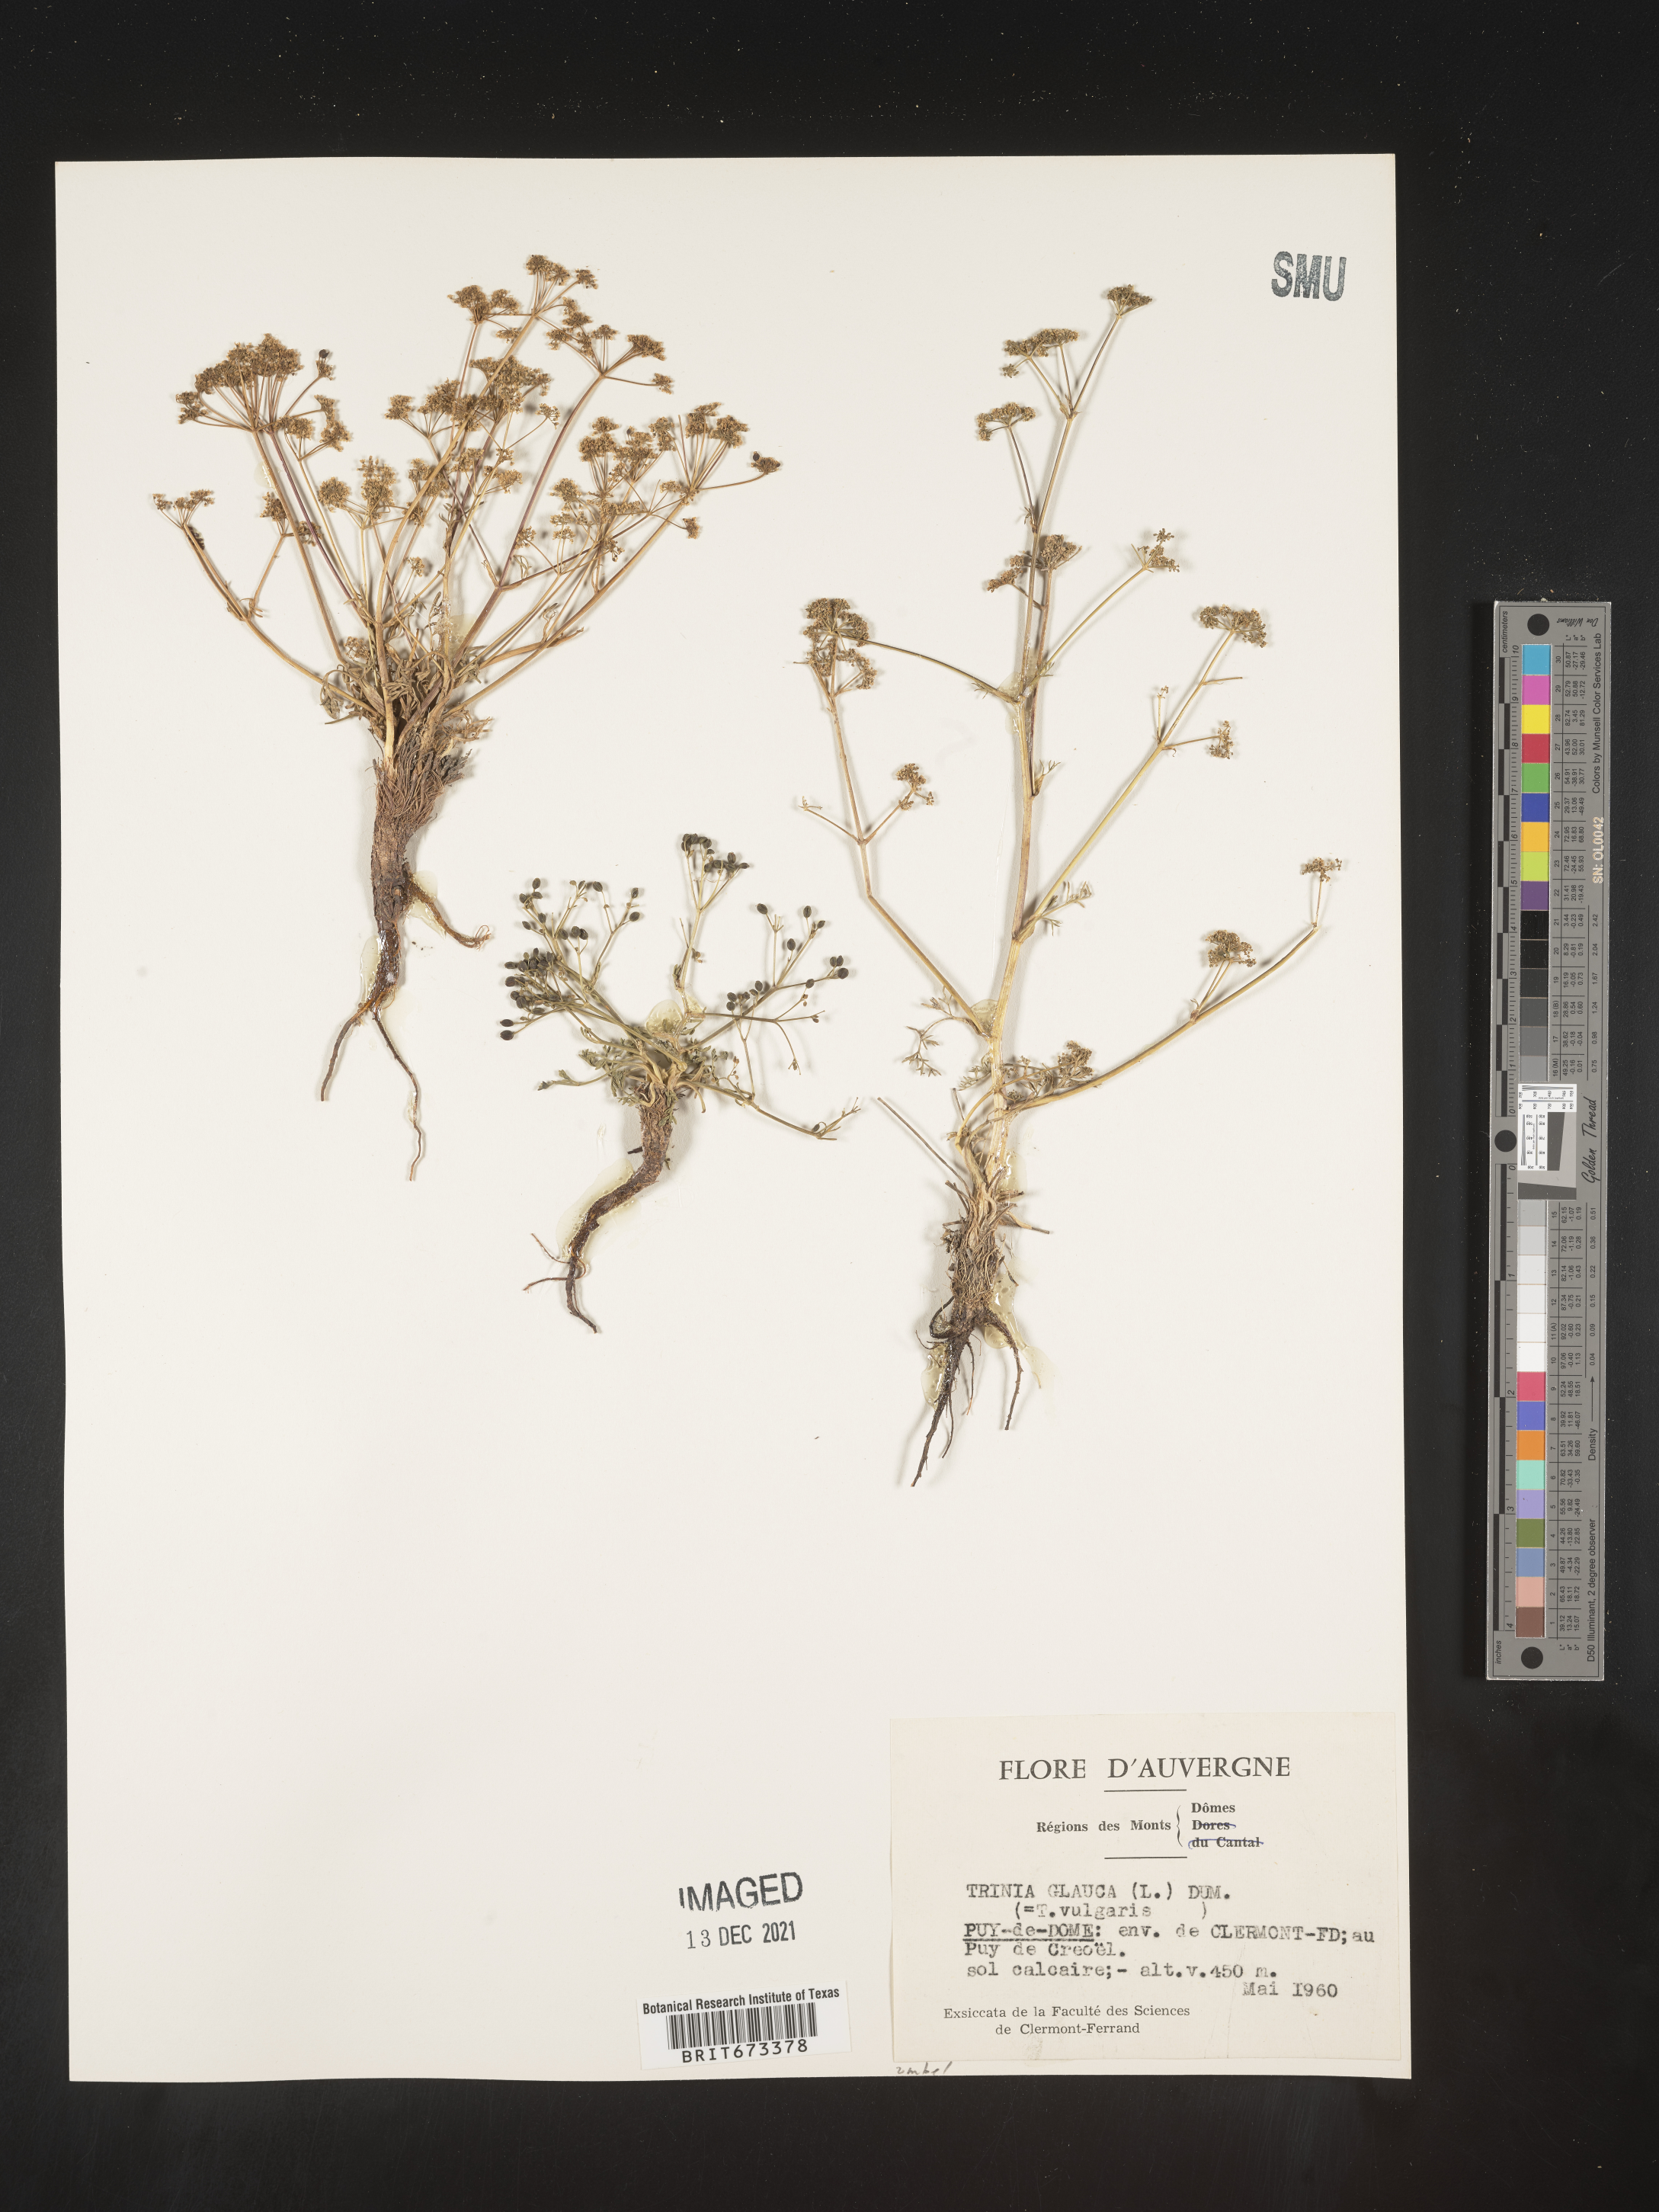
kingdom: Plantae
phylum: Tracheophyta
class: Magnoliopsida
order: Apiales
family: Apiaceae
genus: Trinia
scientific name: Trinia
